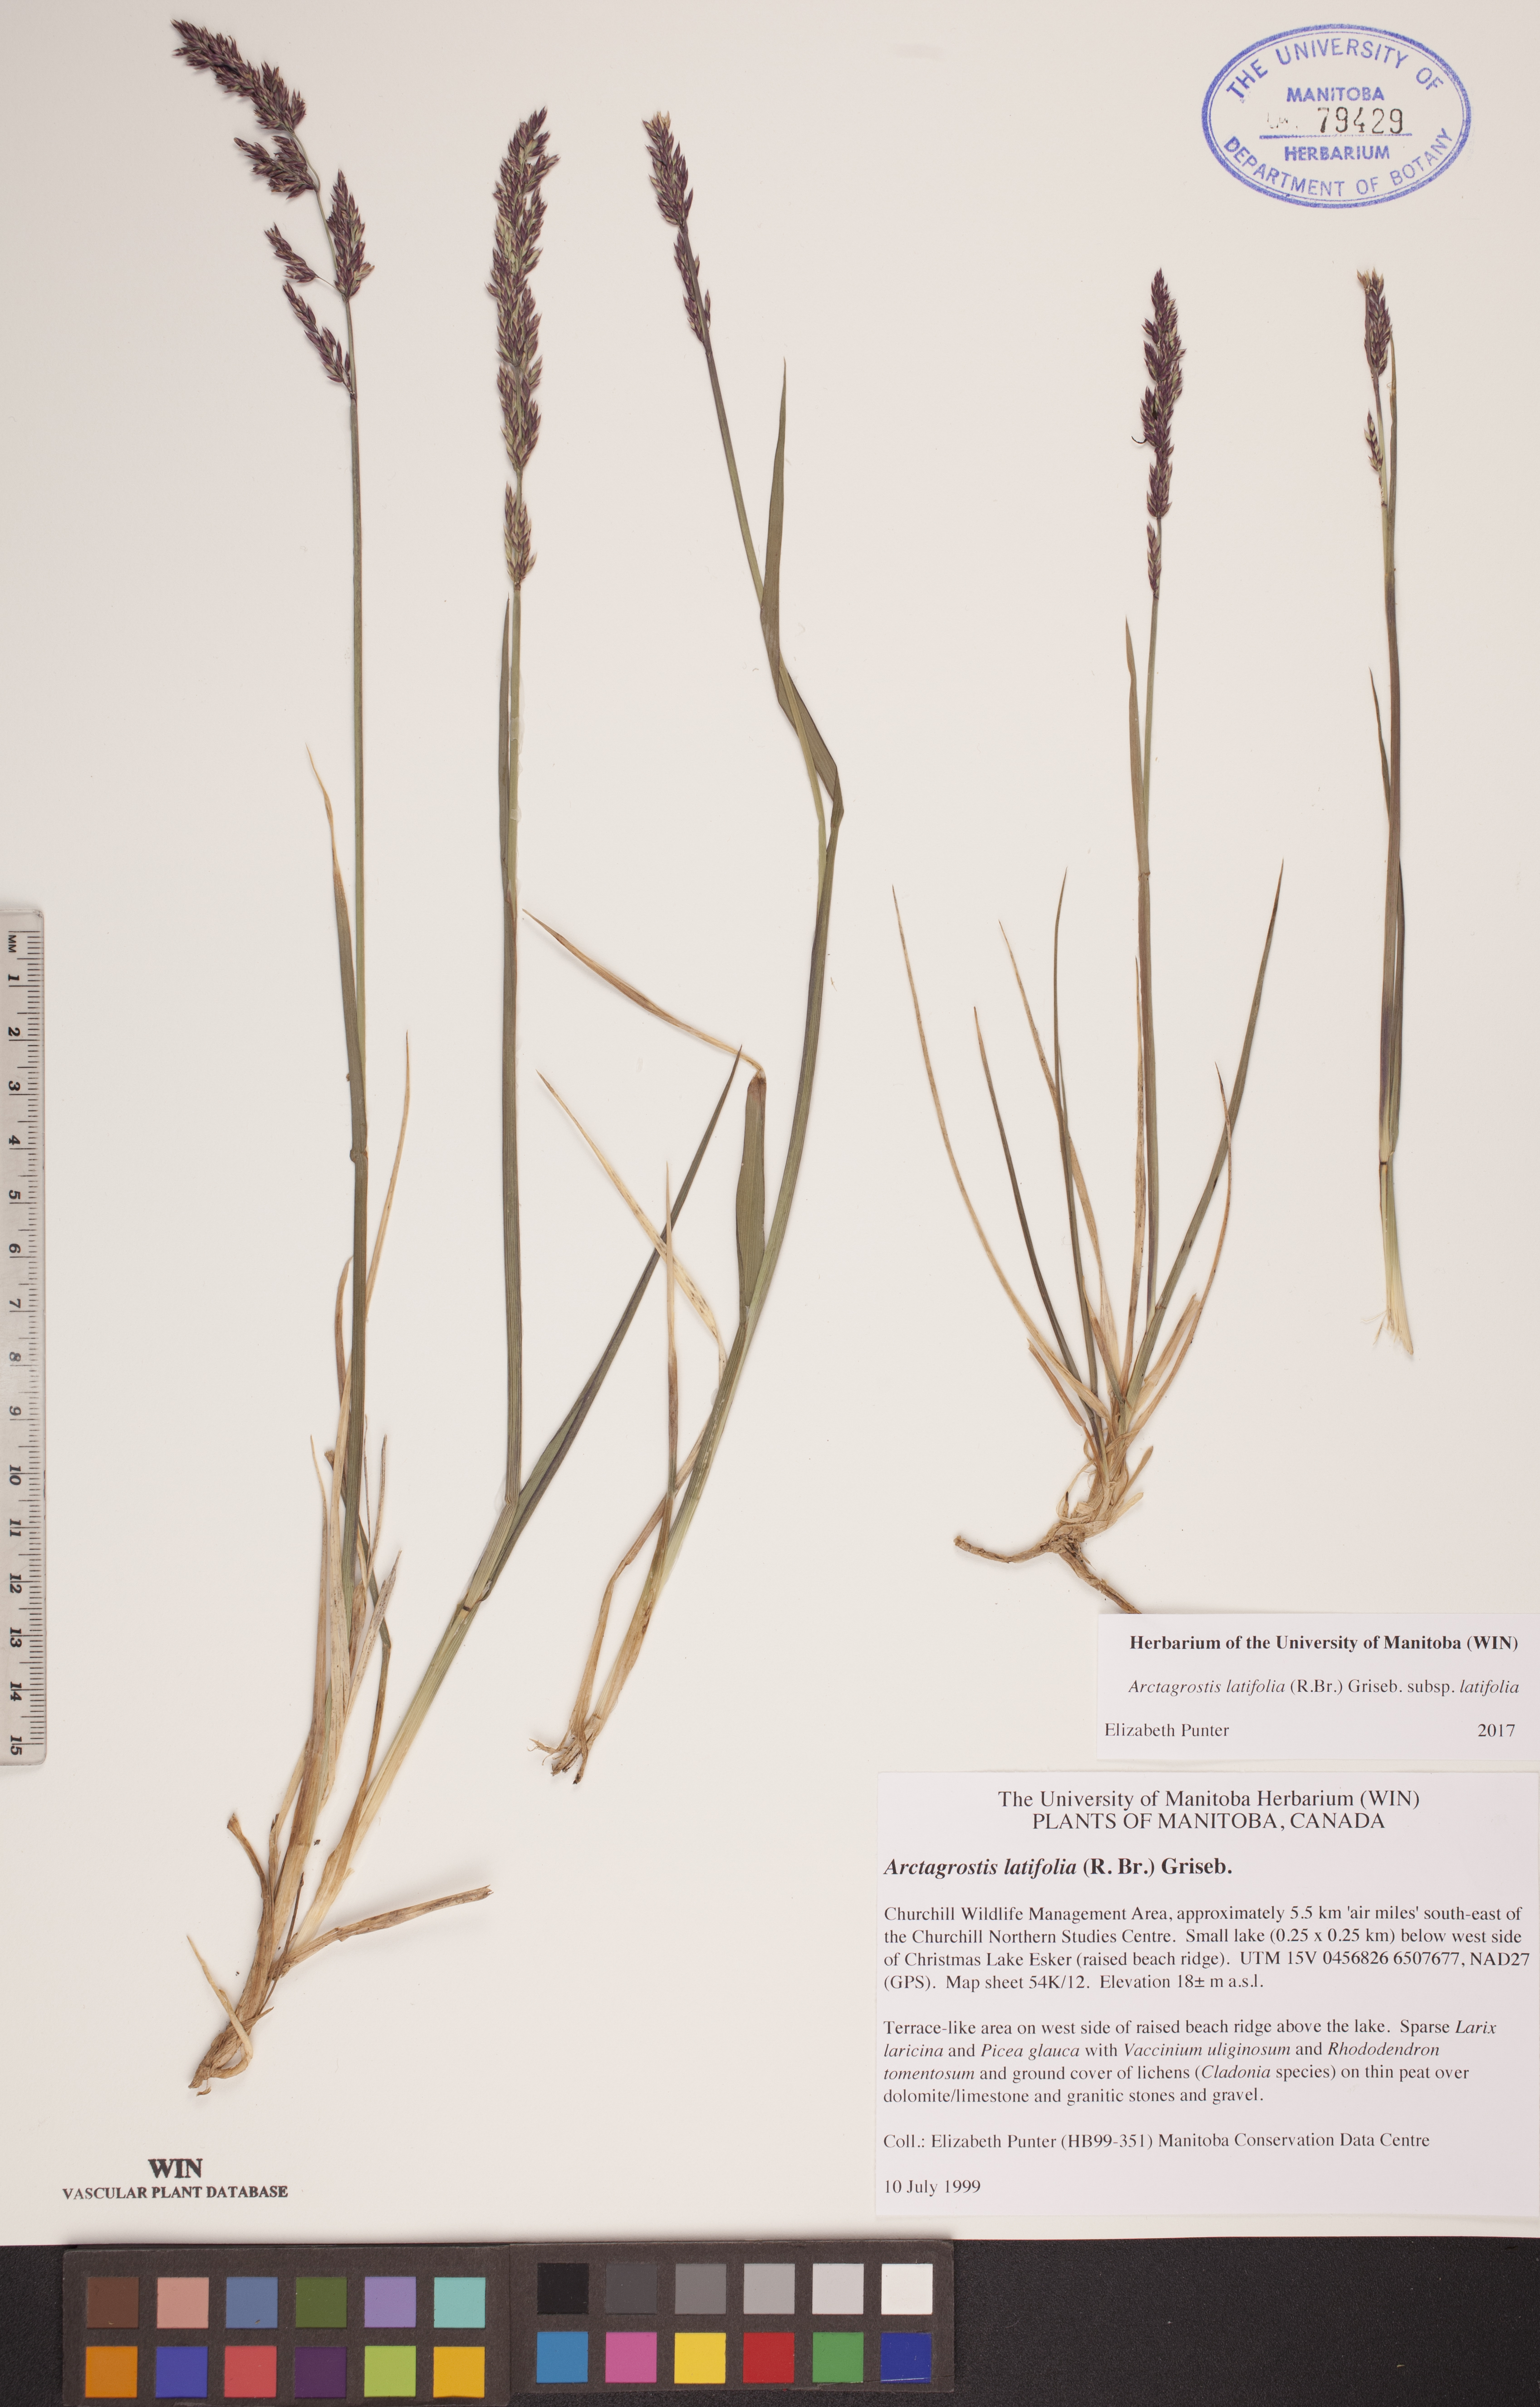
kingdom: Plantae
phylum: Tracheophyta
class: Liliopsida
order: Poales
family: Poaceae
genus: Arctagrostis
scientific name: Arctagrostis latifolia
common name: Arctic grass
